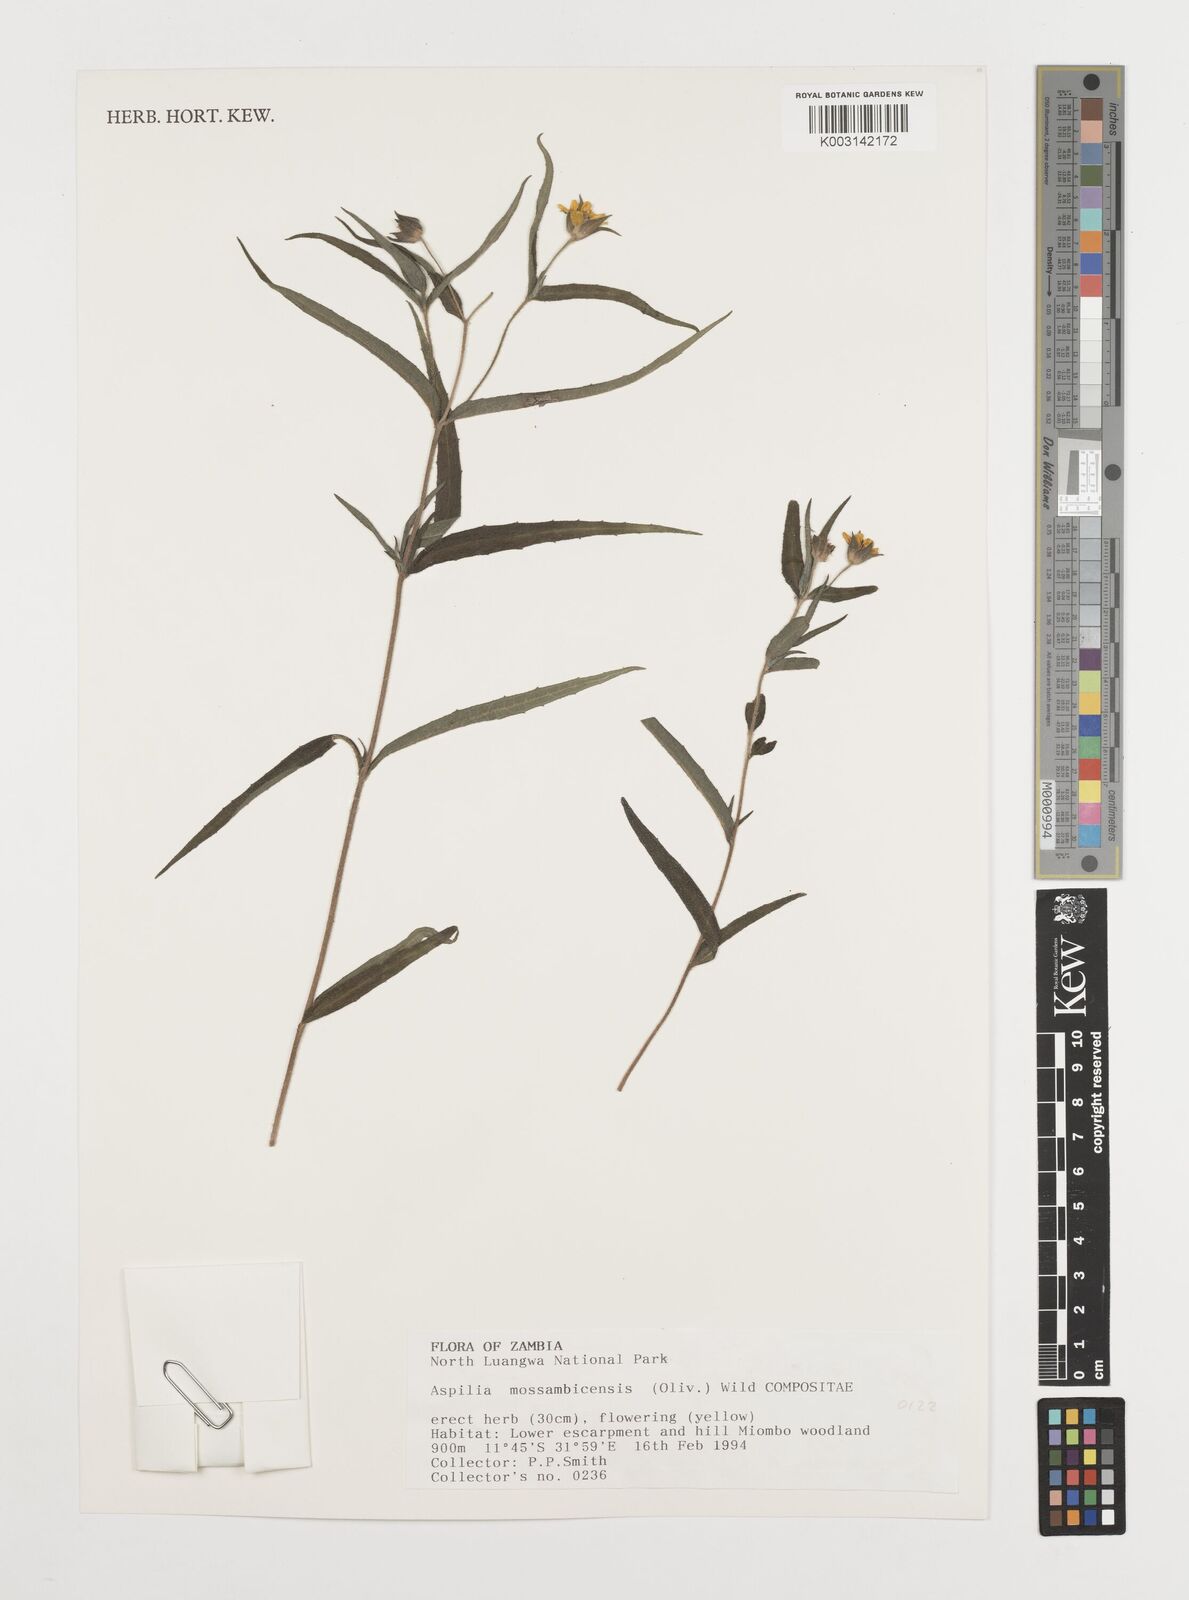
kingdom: Plantae
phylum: Tracheophyta
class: Magnoliopsida
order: Asterales
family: Asteraceae
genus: Aspilia
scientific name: Aspilia mossambicensis
